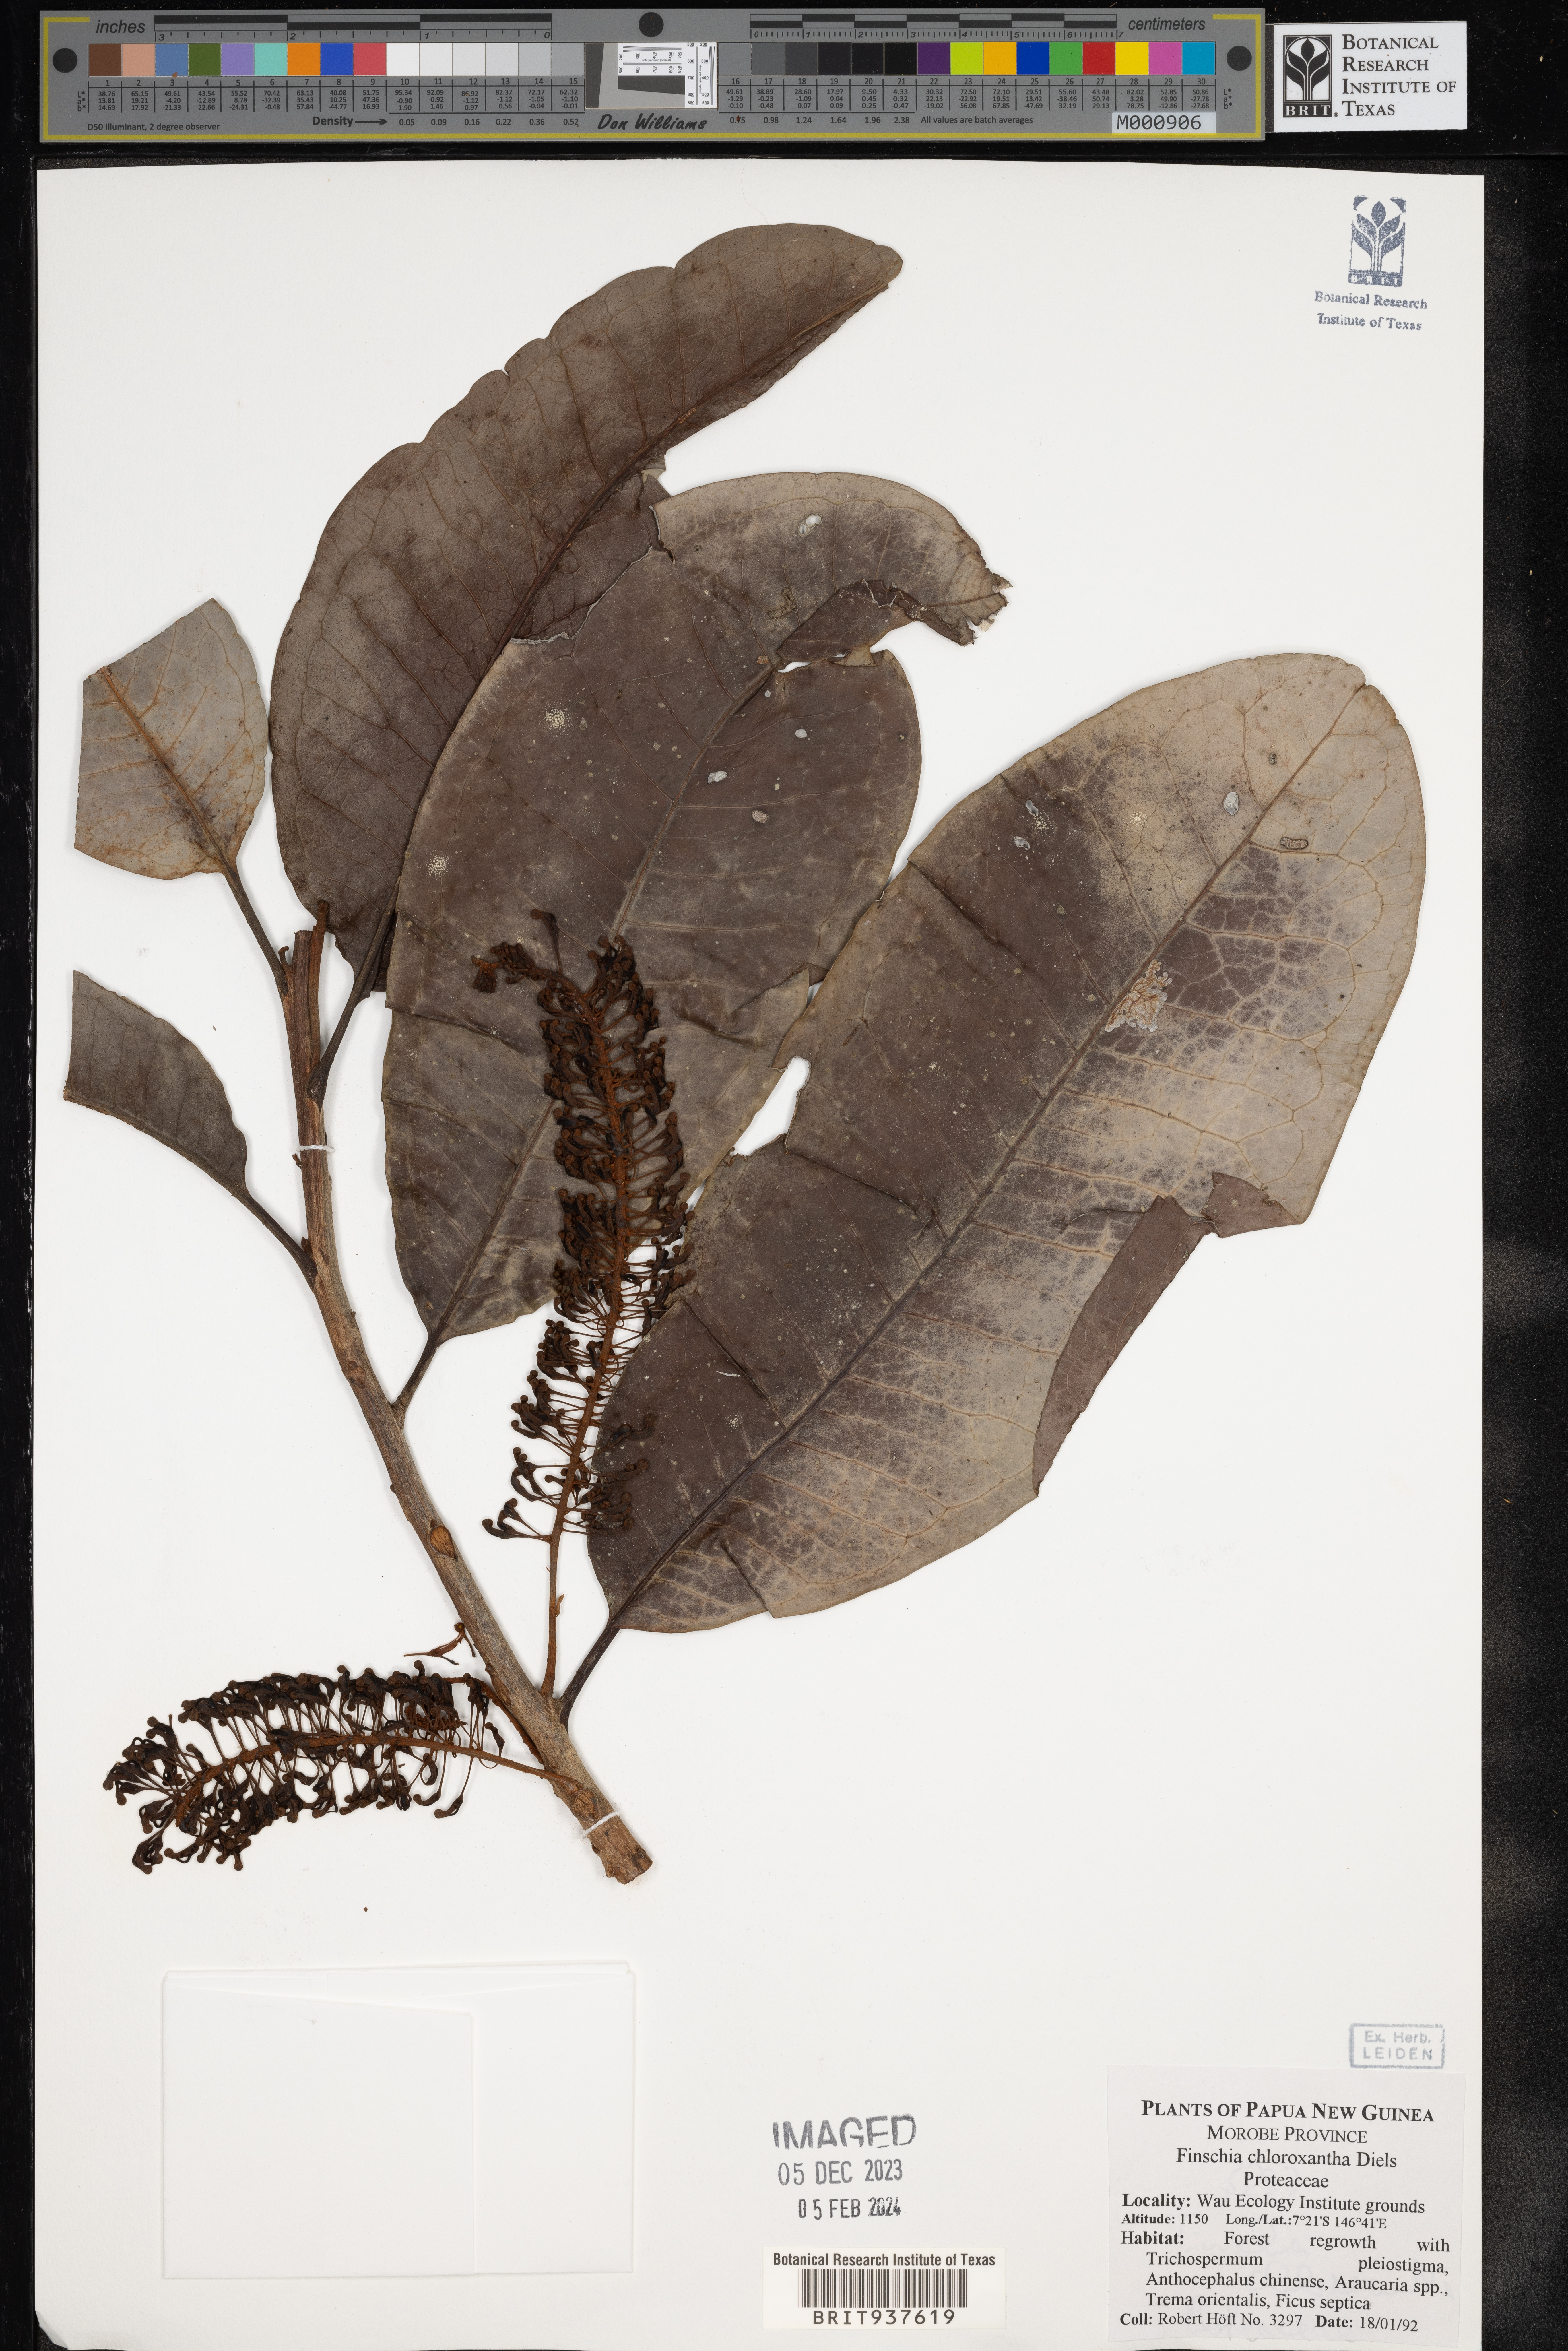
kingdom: Plantae
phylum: Tracheophyta
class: Magnoliopsida
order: Proteales
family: Proteaceae
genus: Finschia
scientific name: Finschia
